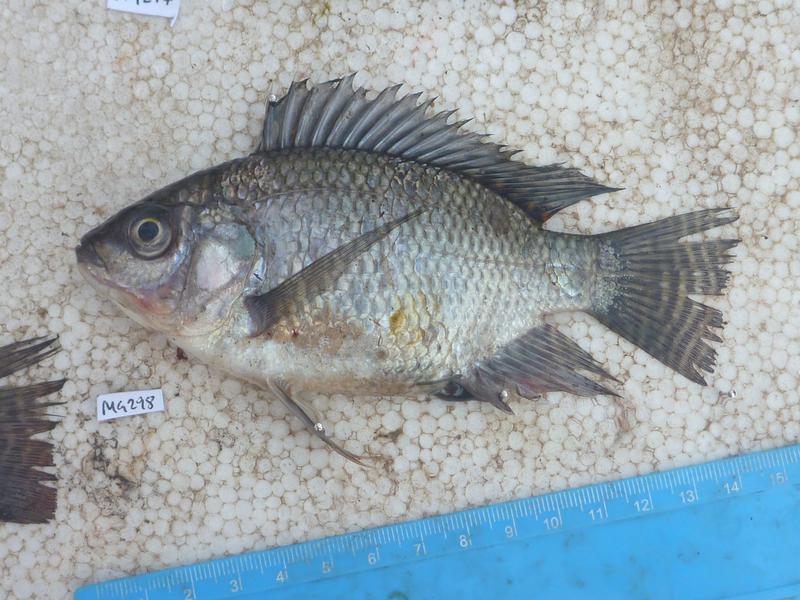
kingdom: Animalia
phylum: Chordata
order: Perciformes
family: Cichlidae
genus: Oreochromis
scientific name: Oreochromis niloticus
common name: Nile tilapia
